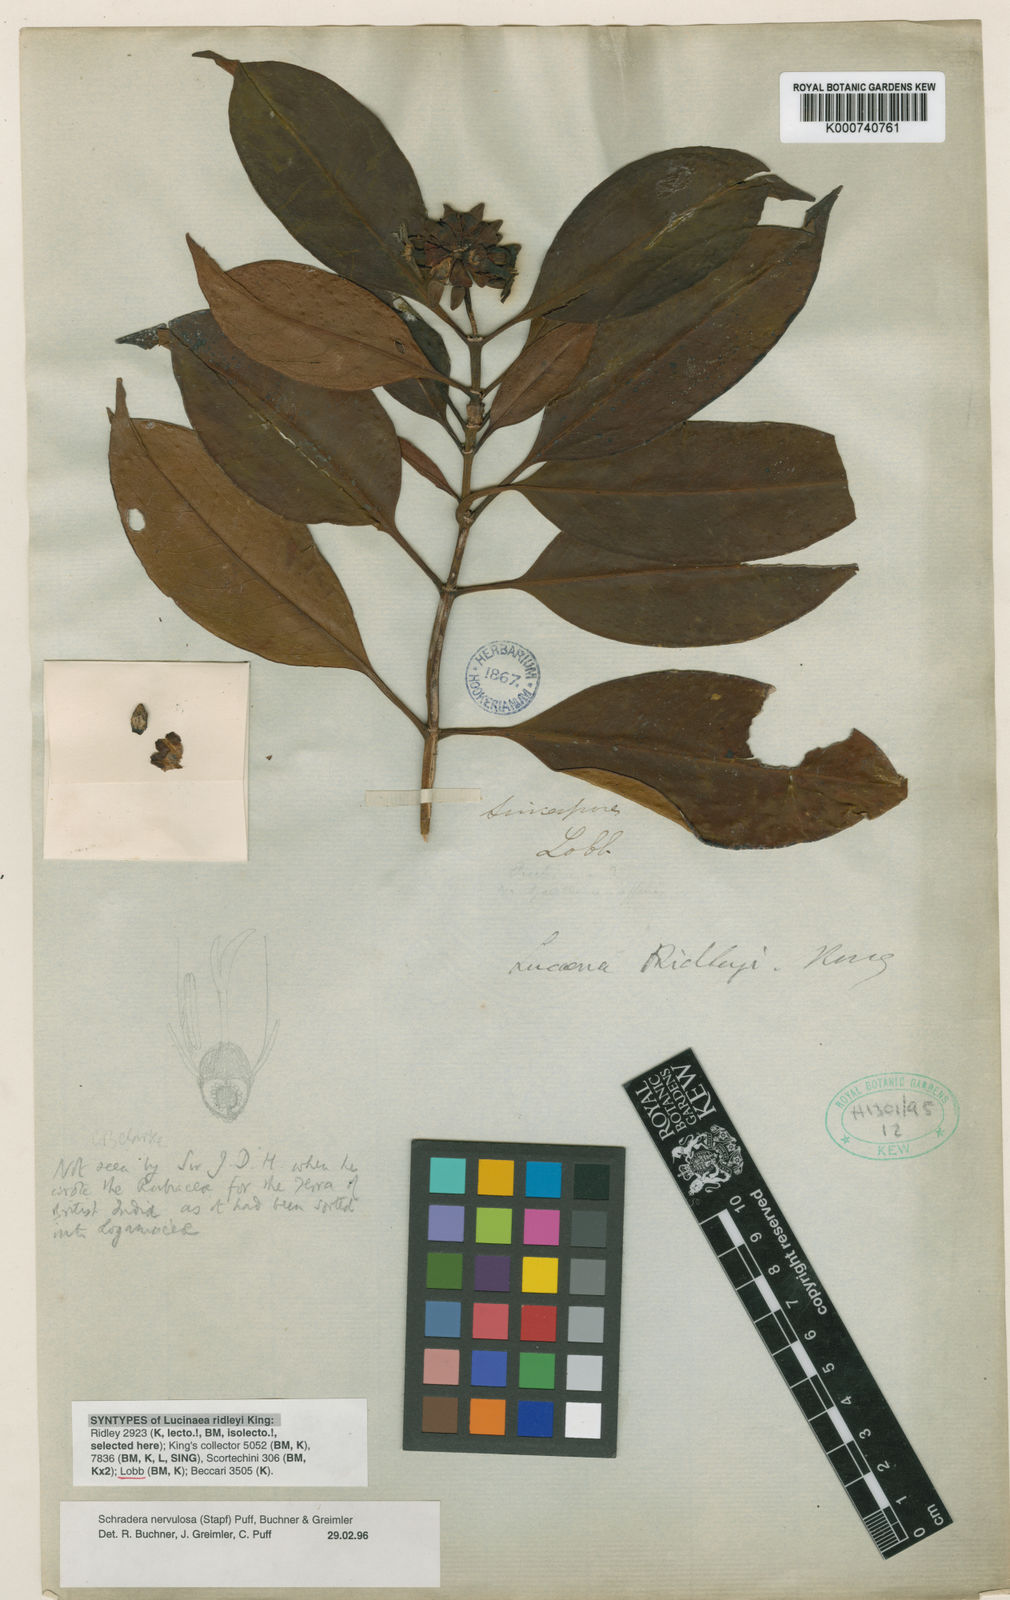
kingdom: Plantae
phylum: Tracheophyta
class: Magnoliopsida
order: Gentianales
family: Rubiaceae
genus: Schradera
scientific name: Schradera nervulosa
